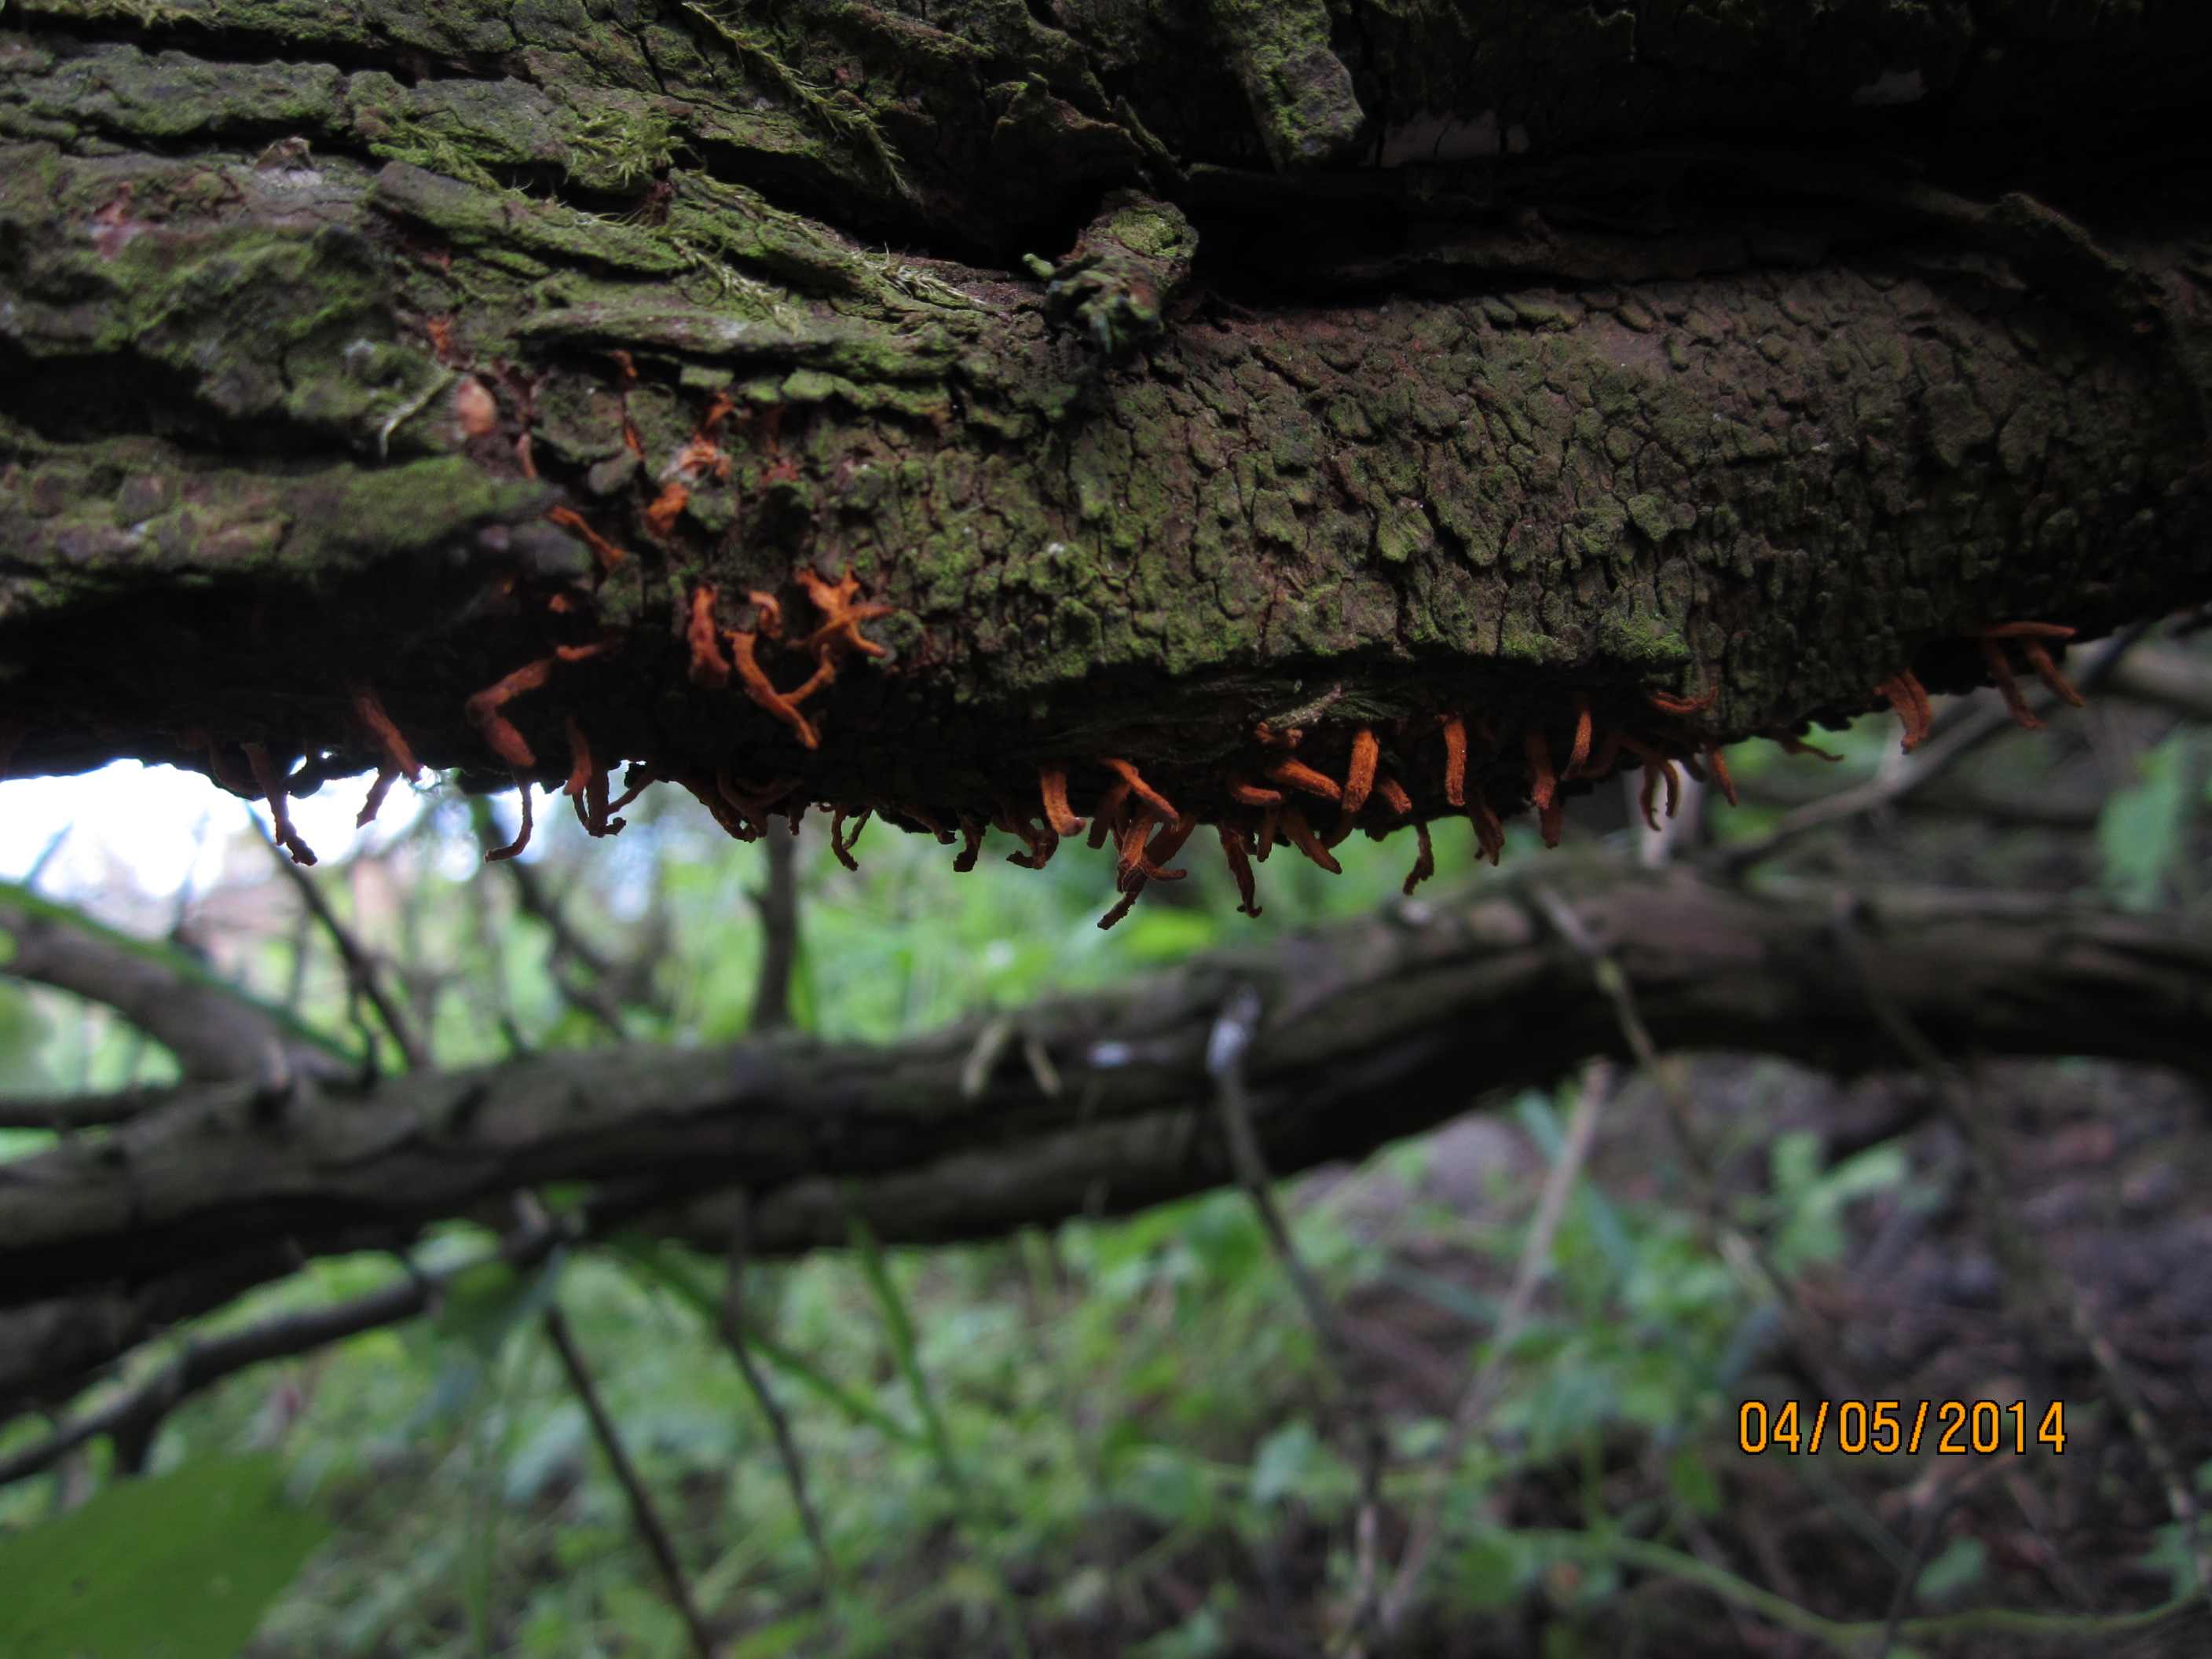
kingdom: Fungi
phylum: Basidiomycota
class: Pucciniomycetes
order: Pucciniales
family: Gymnosporangiaceae
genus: Gymnosporangium
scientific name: Gymnosporangium clavariiforme
